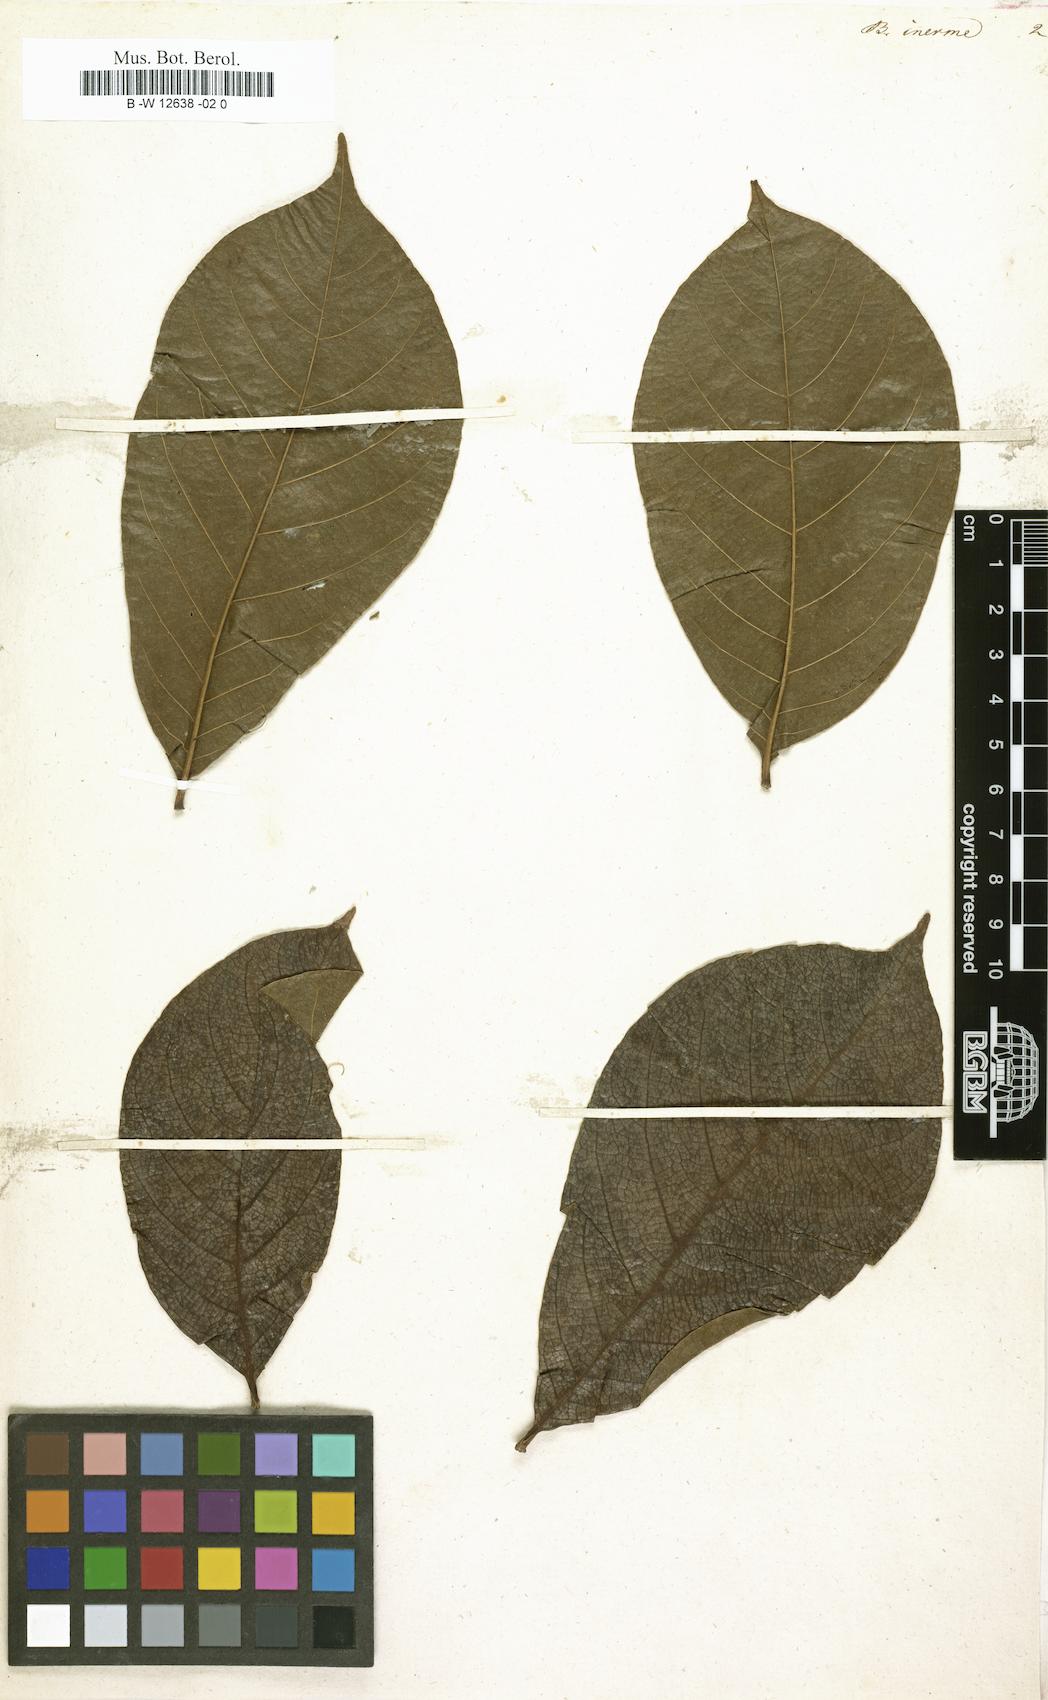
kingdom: Plantae
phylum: Tracheophyta
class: Magnoliopsida
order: Malvales
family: Malvaceae
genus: Ceiba
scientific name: Ceiba pentandra
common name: Kapok
